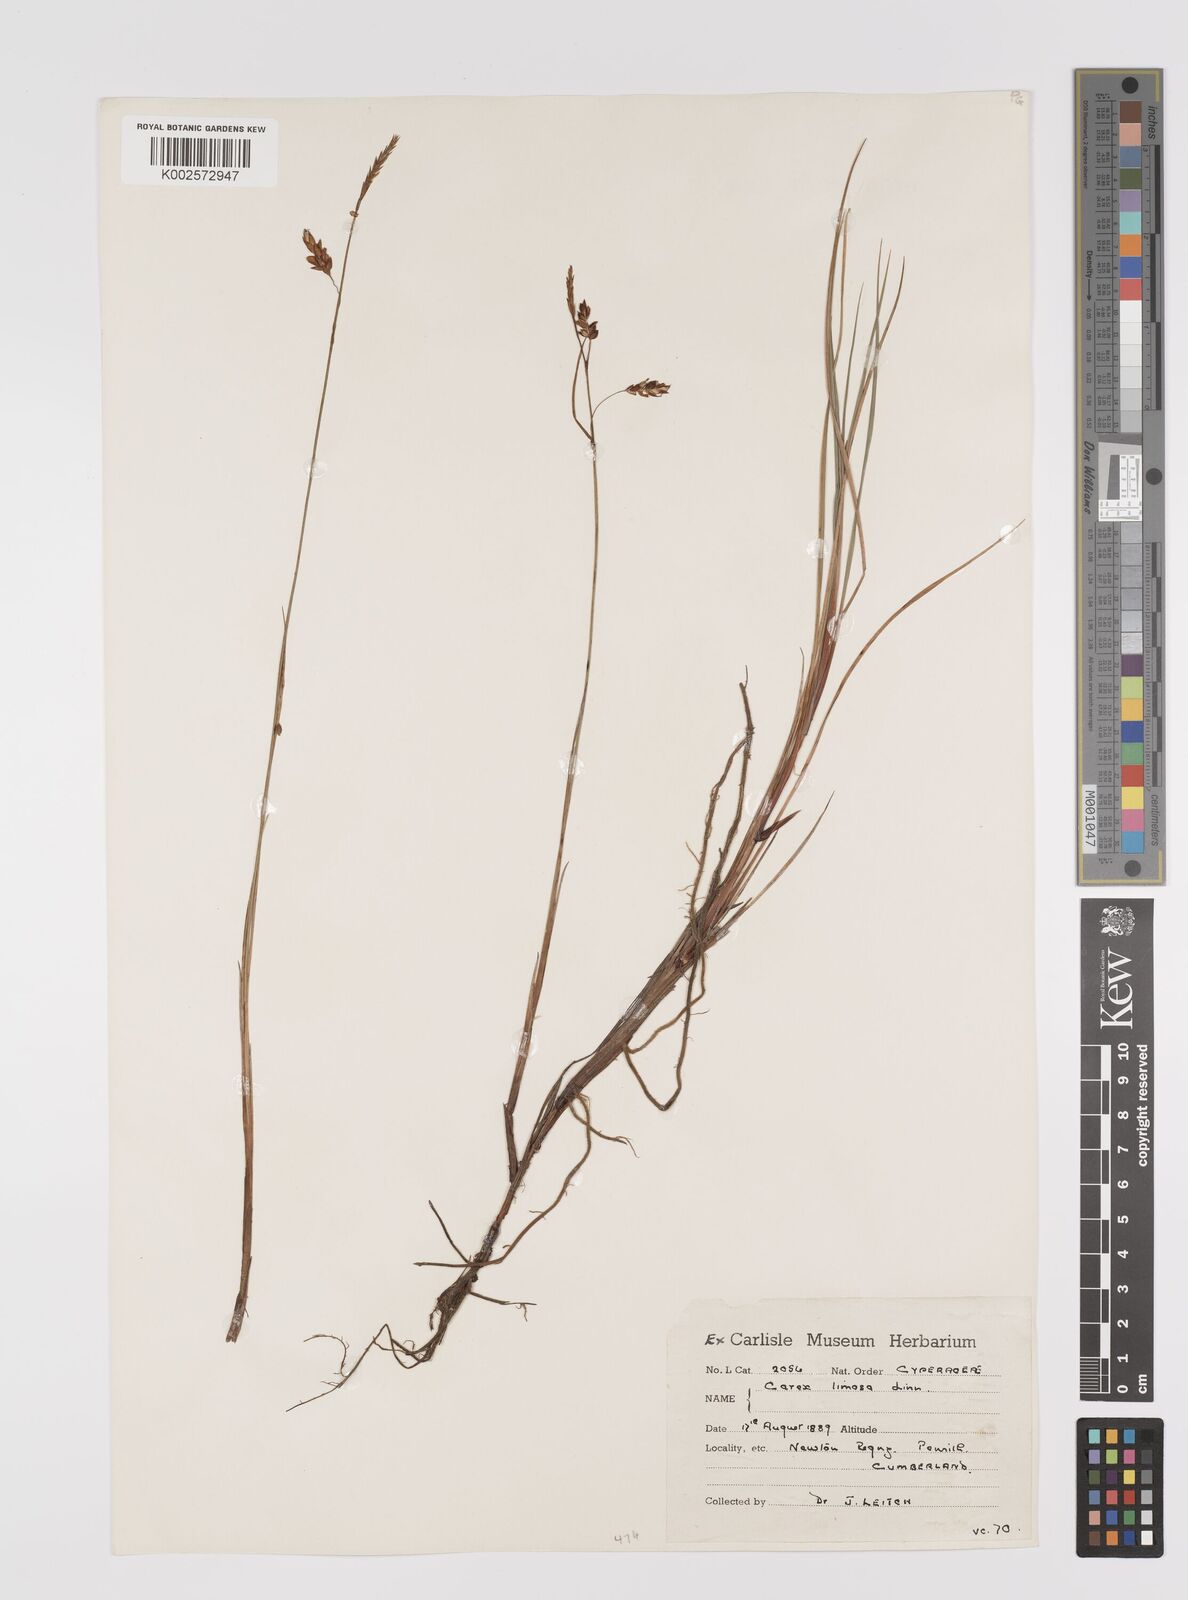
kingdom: Plantae
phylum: Tracheophyta
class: Liliopsida
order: Poales
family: Cyperaceae
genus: Carex
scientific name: Carex limosa
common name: Bog sedge
